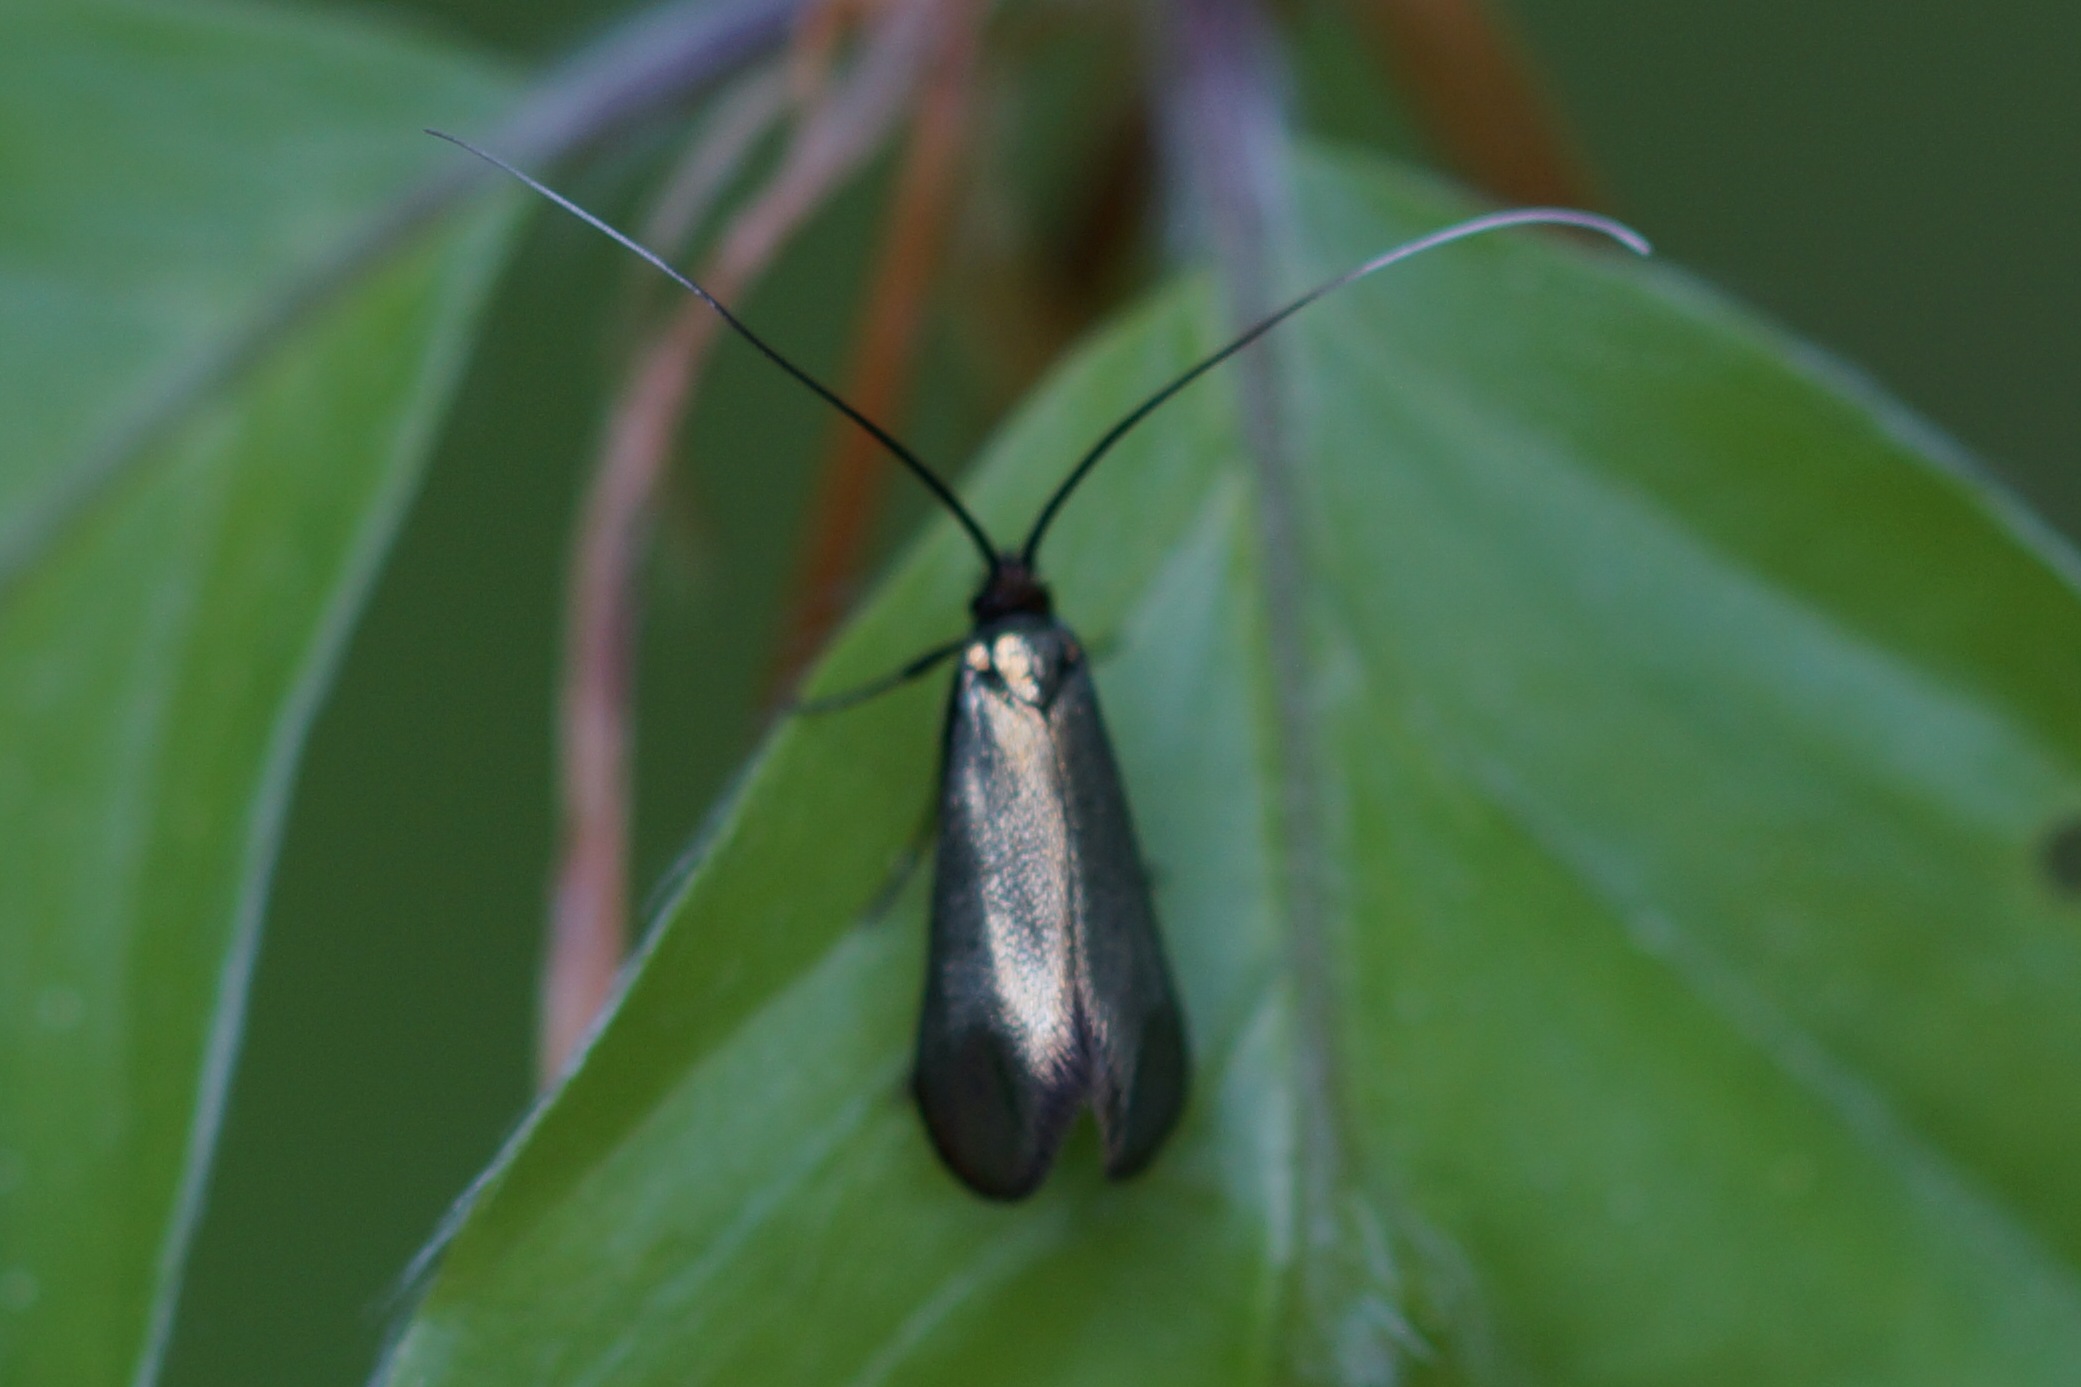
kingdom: Animalia
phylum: Arthropoda
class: Insecta
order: Lepidoptera
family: Adelidae
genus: Adela
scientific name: Adela viridella
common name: Egelanghornsmøl
